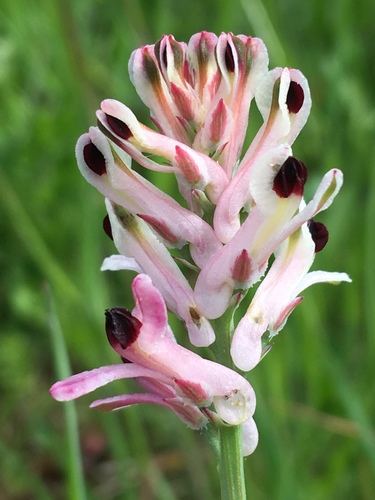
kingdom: Plantae
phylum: Tracheophyta
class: Magnoliopsida
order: Ranunculales
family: Papaveraceae
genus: Fumaria
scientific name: Fumaria agraria
